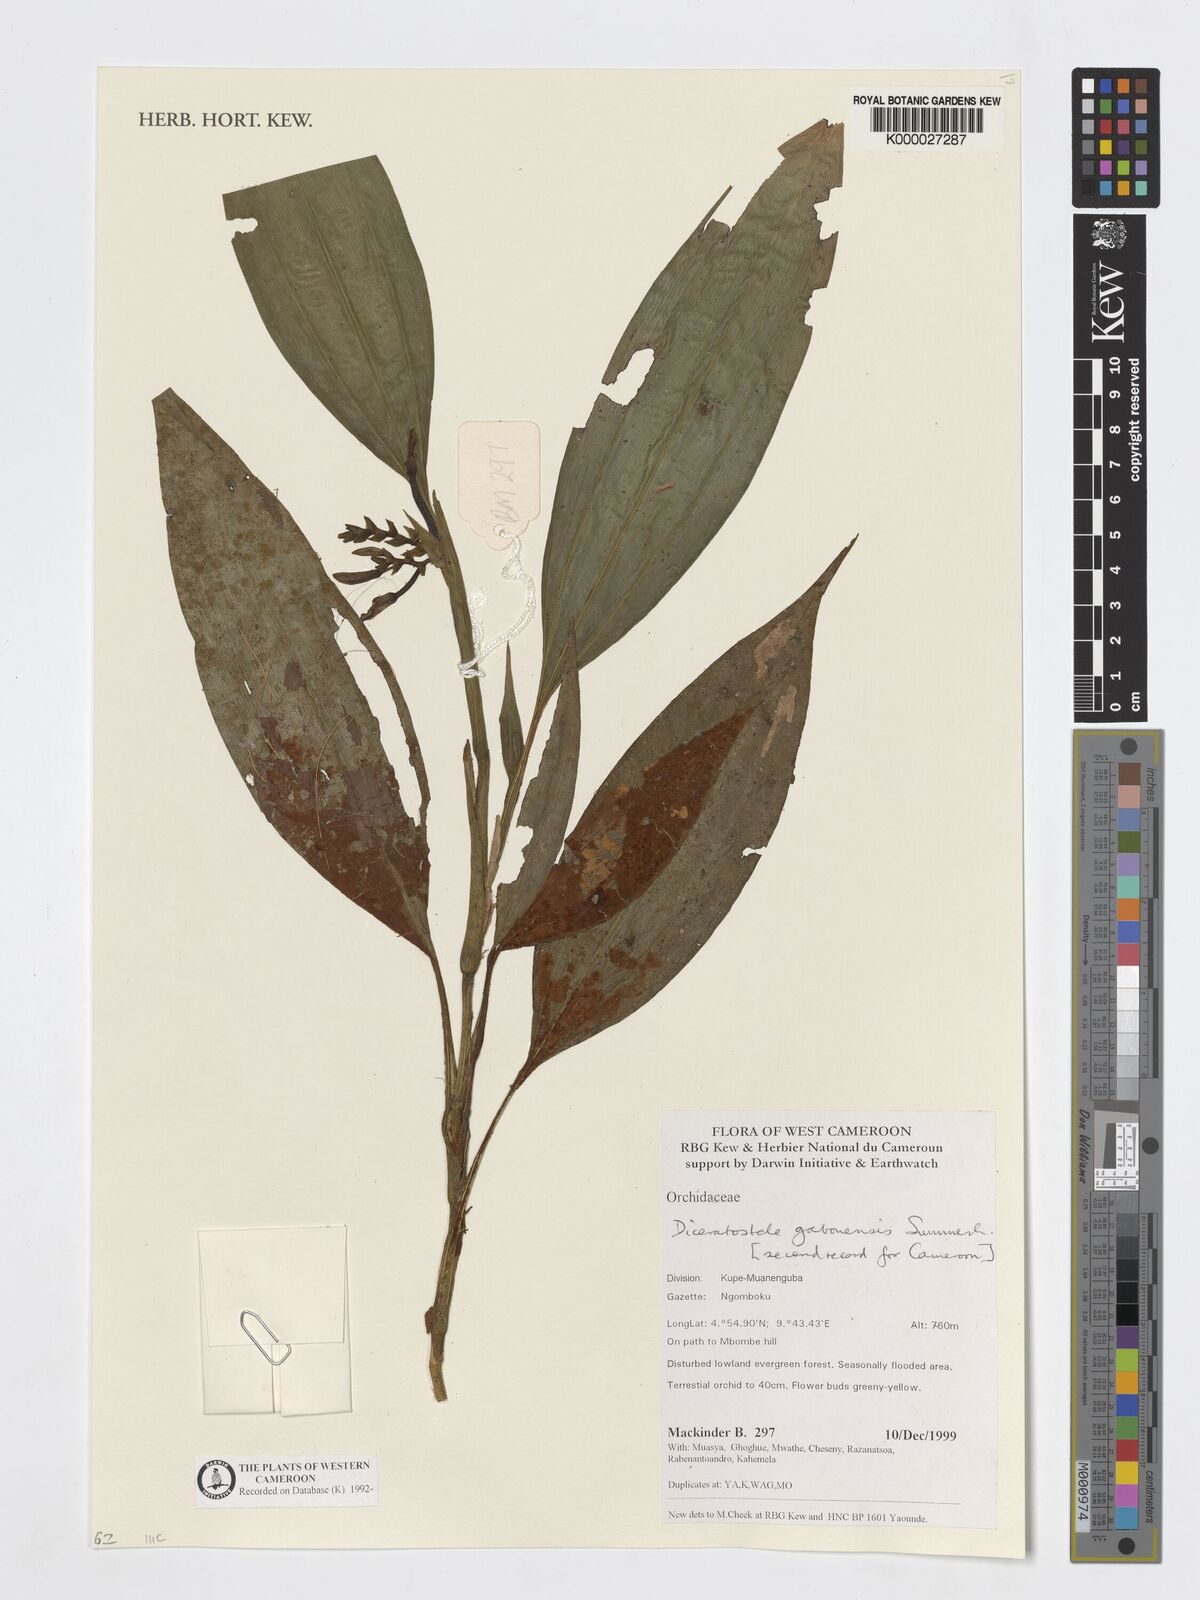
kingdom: Plantae
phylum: Tracheophyta
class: Liliopsida
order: Asparagales
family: Orchidaceae
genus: Diceratostele
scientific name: Diceratostele gabonensis
